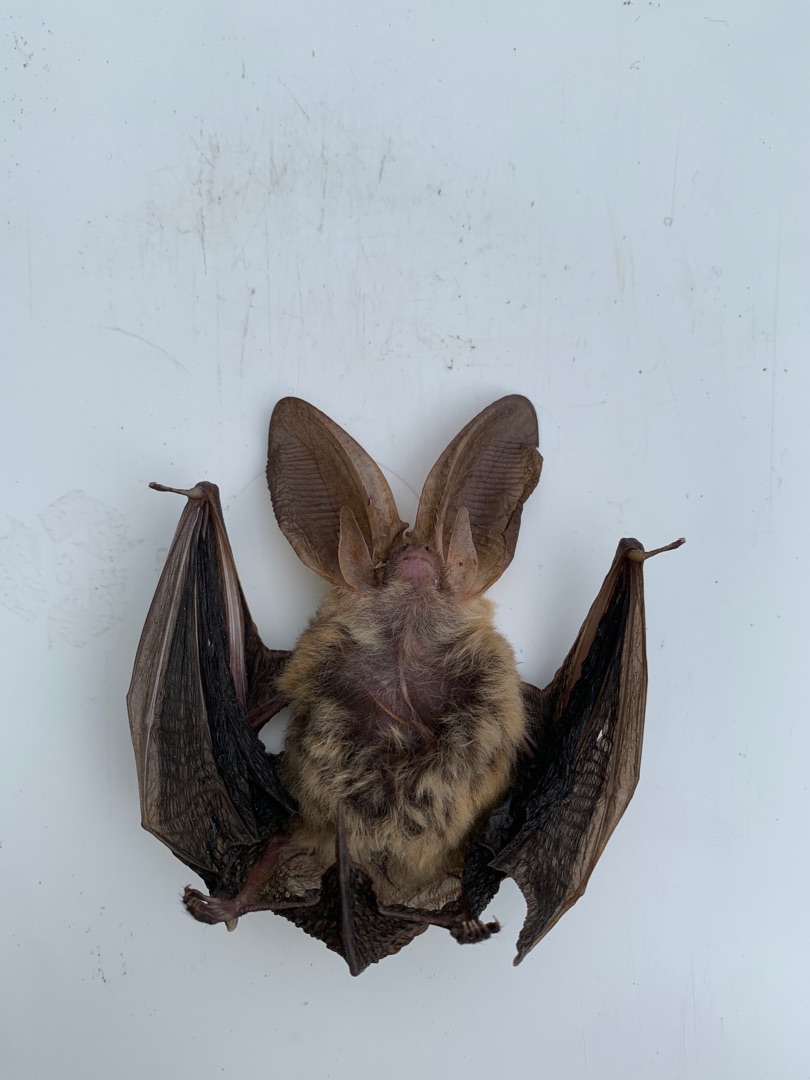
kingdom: Animalia
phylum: Chordata
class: Mammalia
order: Chiroptera
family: Vespertilionidae
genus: Plecotus
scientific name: Plecotus auritus
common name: Brun langøre
